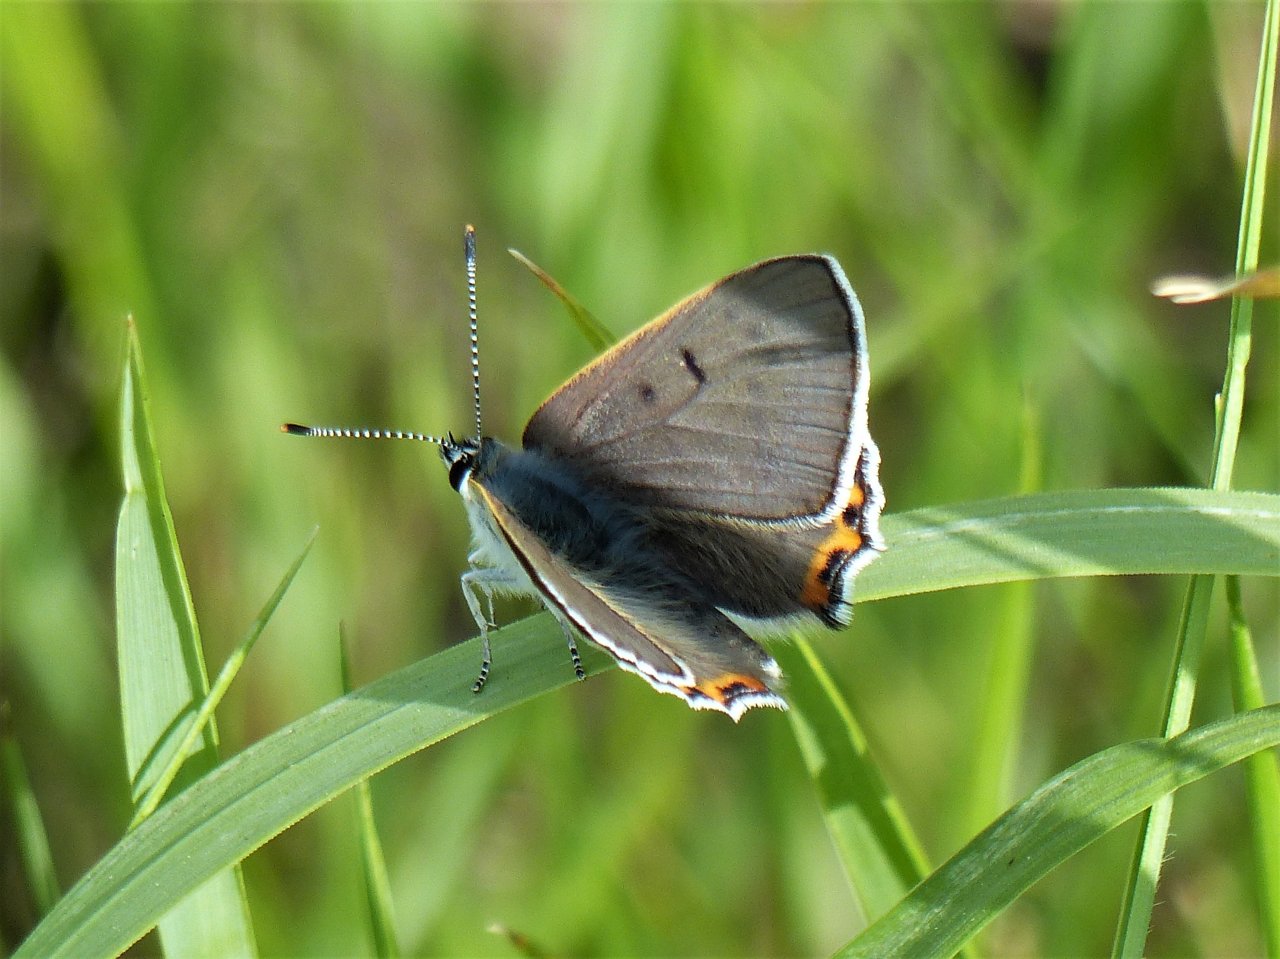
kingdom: Animalia
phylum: Arthropoda
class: Insecta
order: Lepidoptera
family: Lycaenidae
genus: Nacaduba
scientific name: Nacaduba dyopa
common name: Gray Copper
